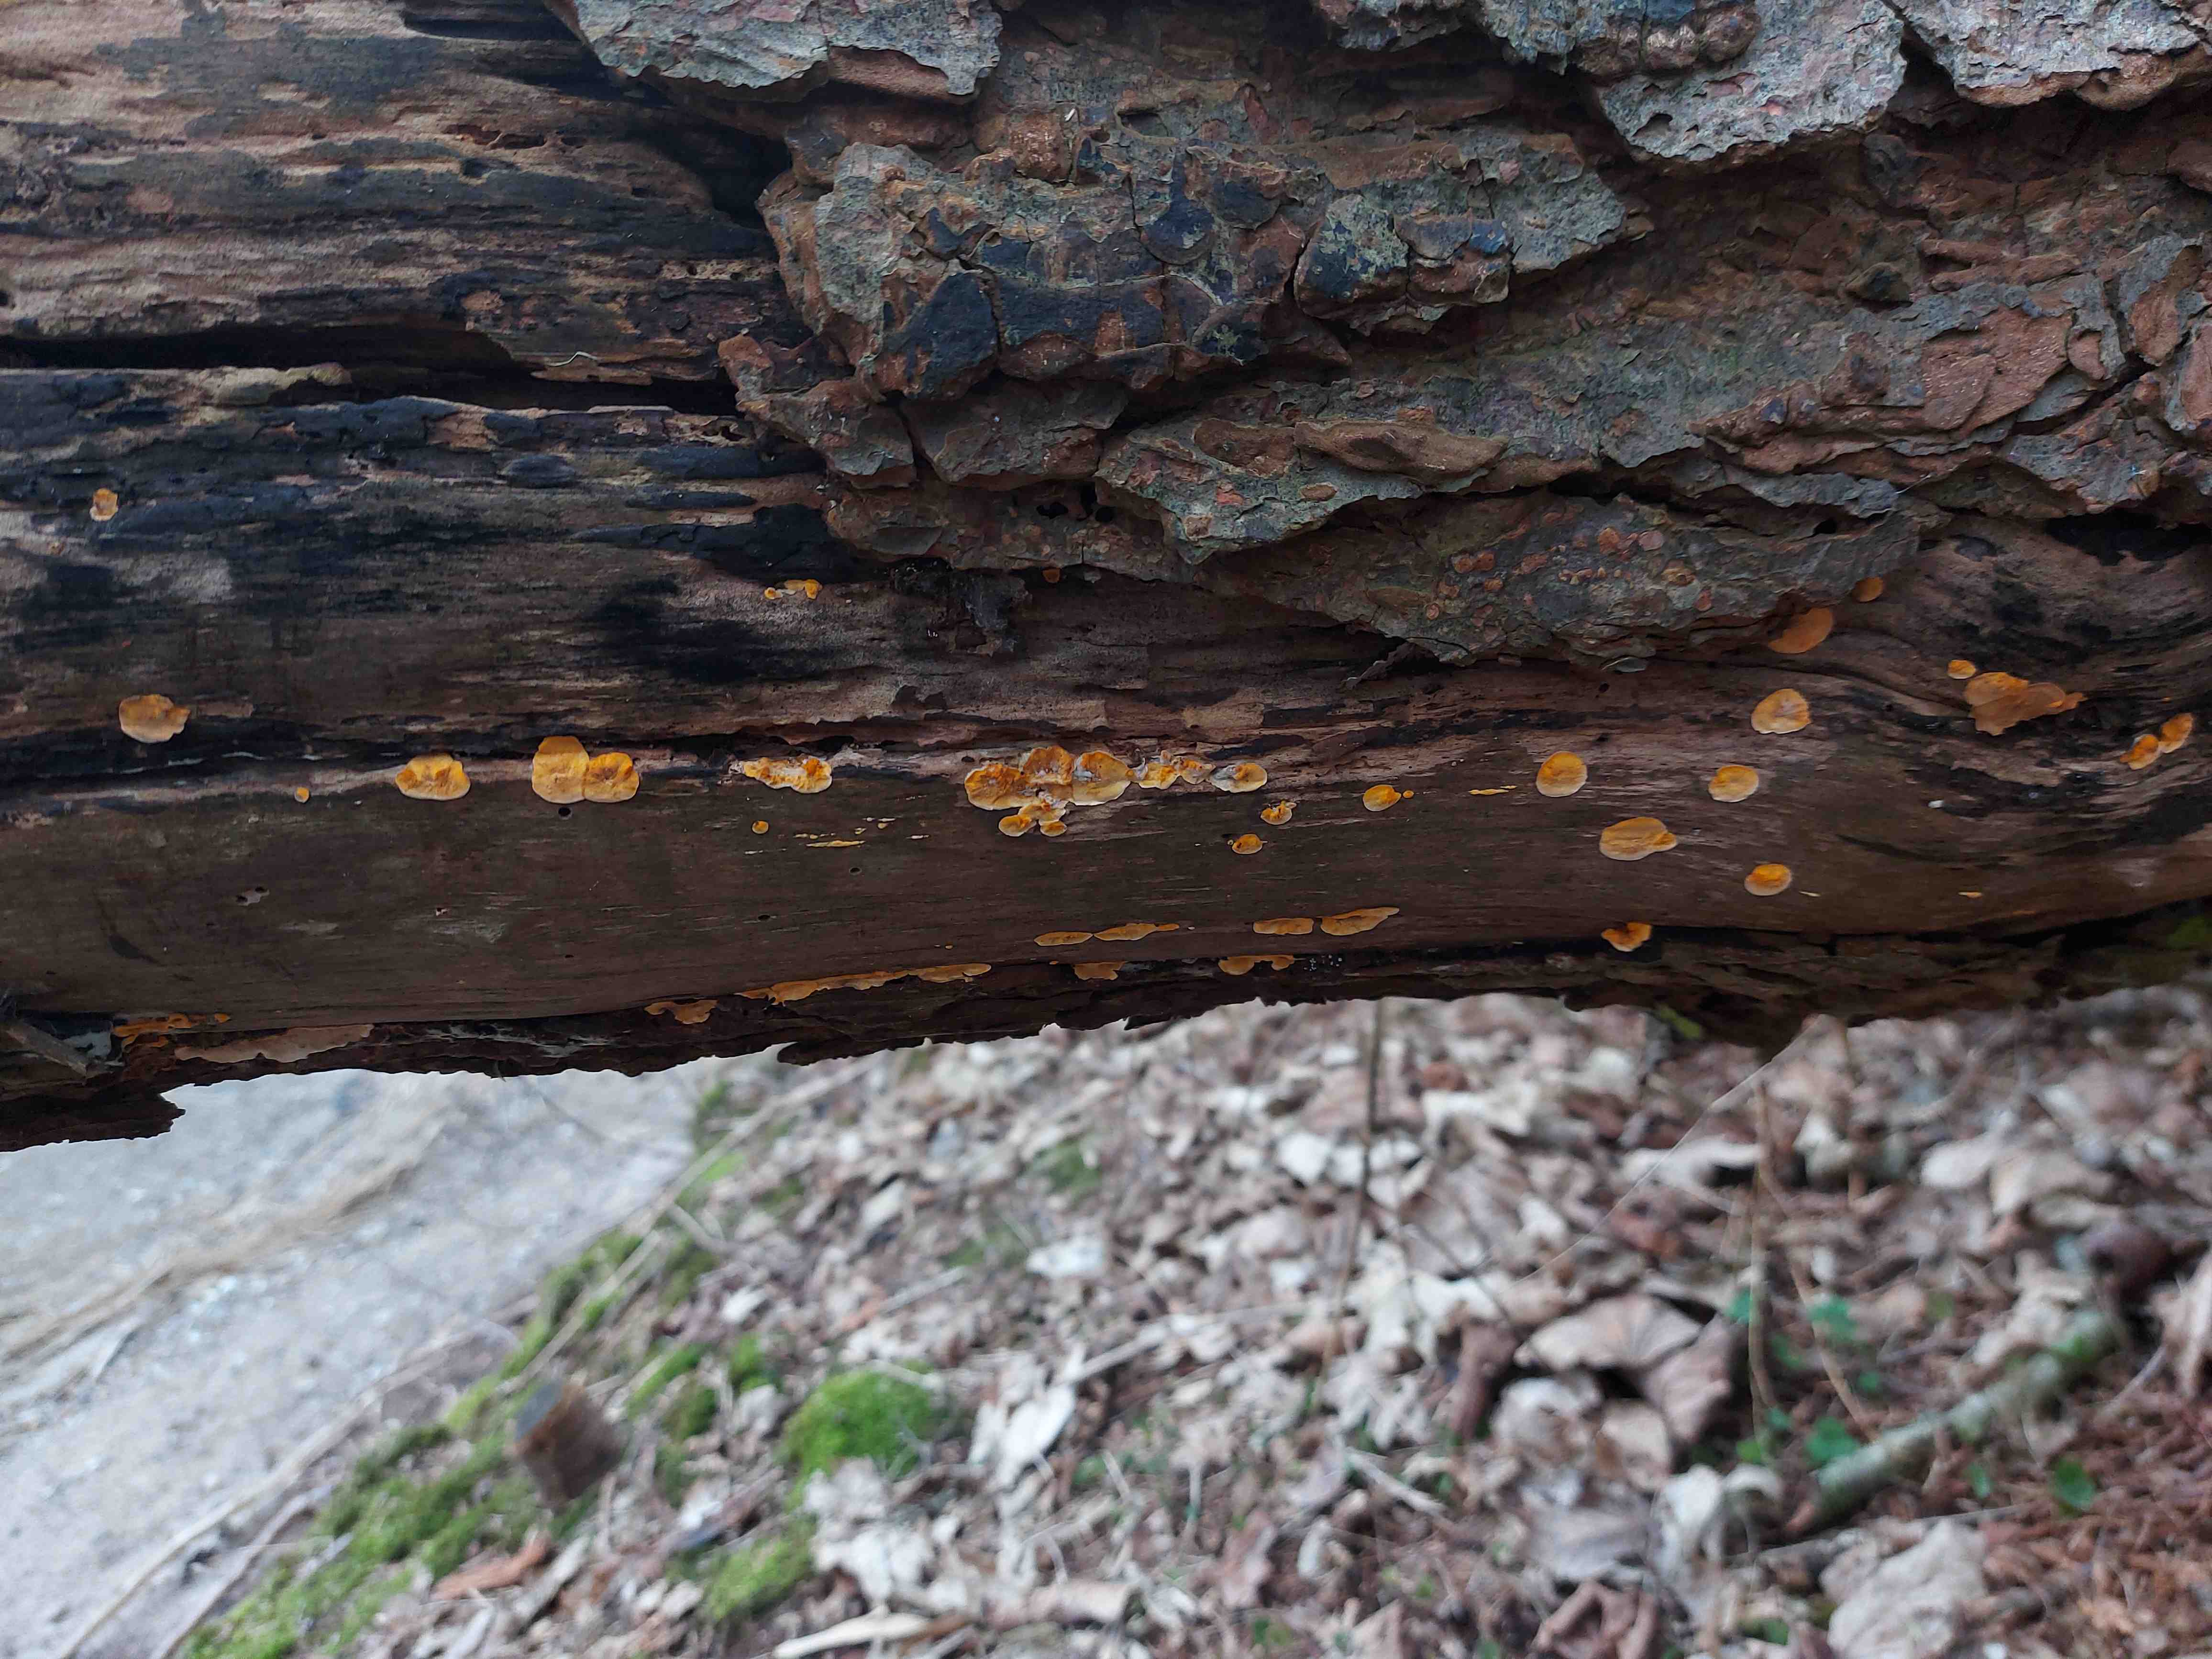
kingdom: Fungi
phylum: Basidiomycota
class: Agaricomycetes
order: Russulales
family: Stereaceae
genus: Stereum
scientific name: Stereum hirsutum
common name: håret lædersvamp
